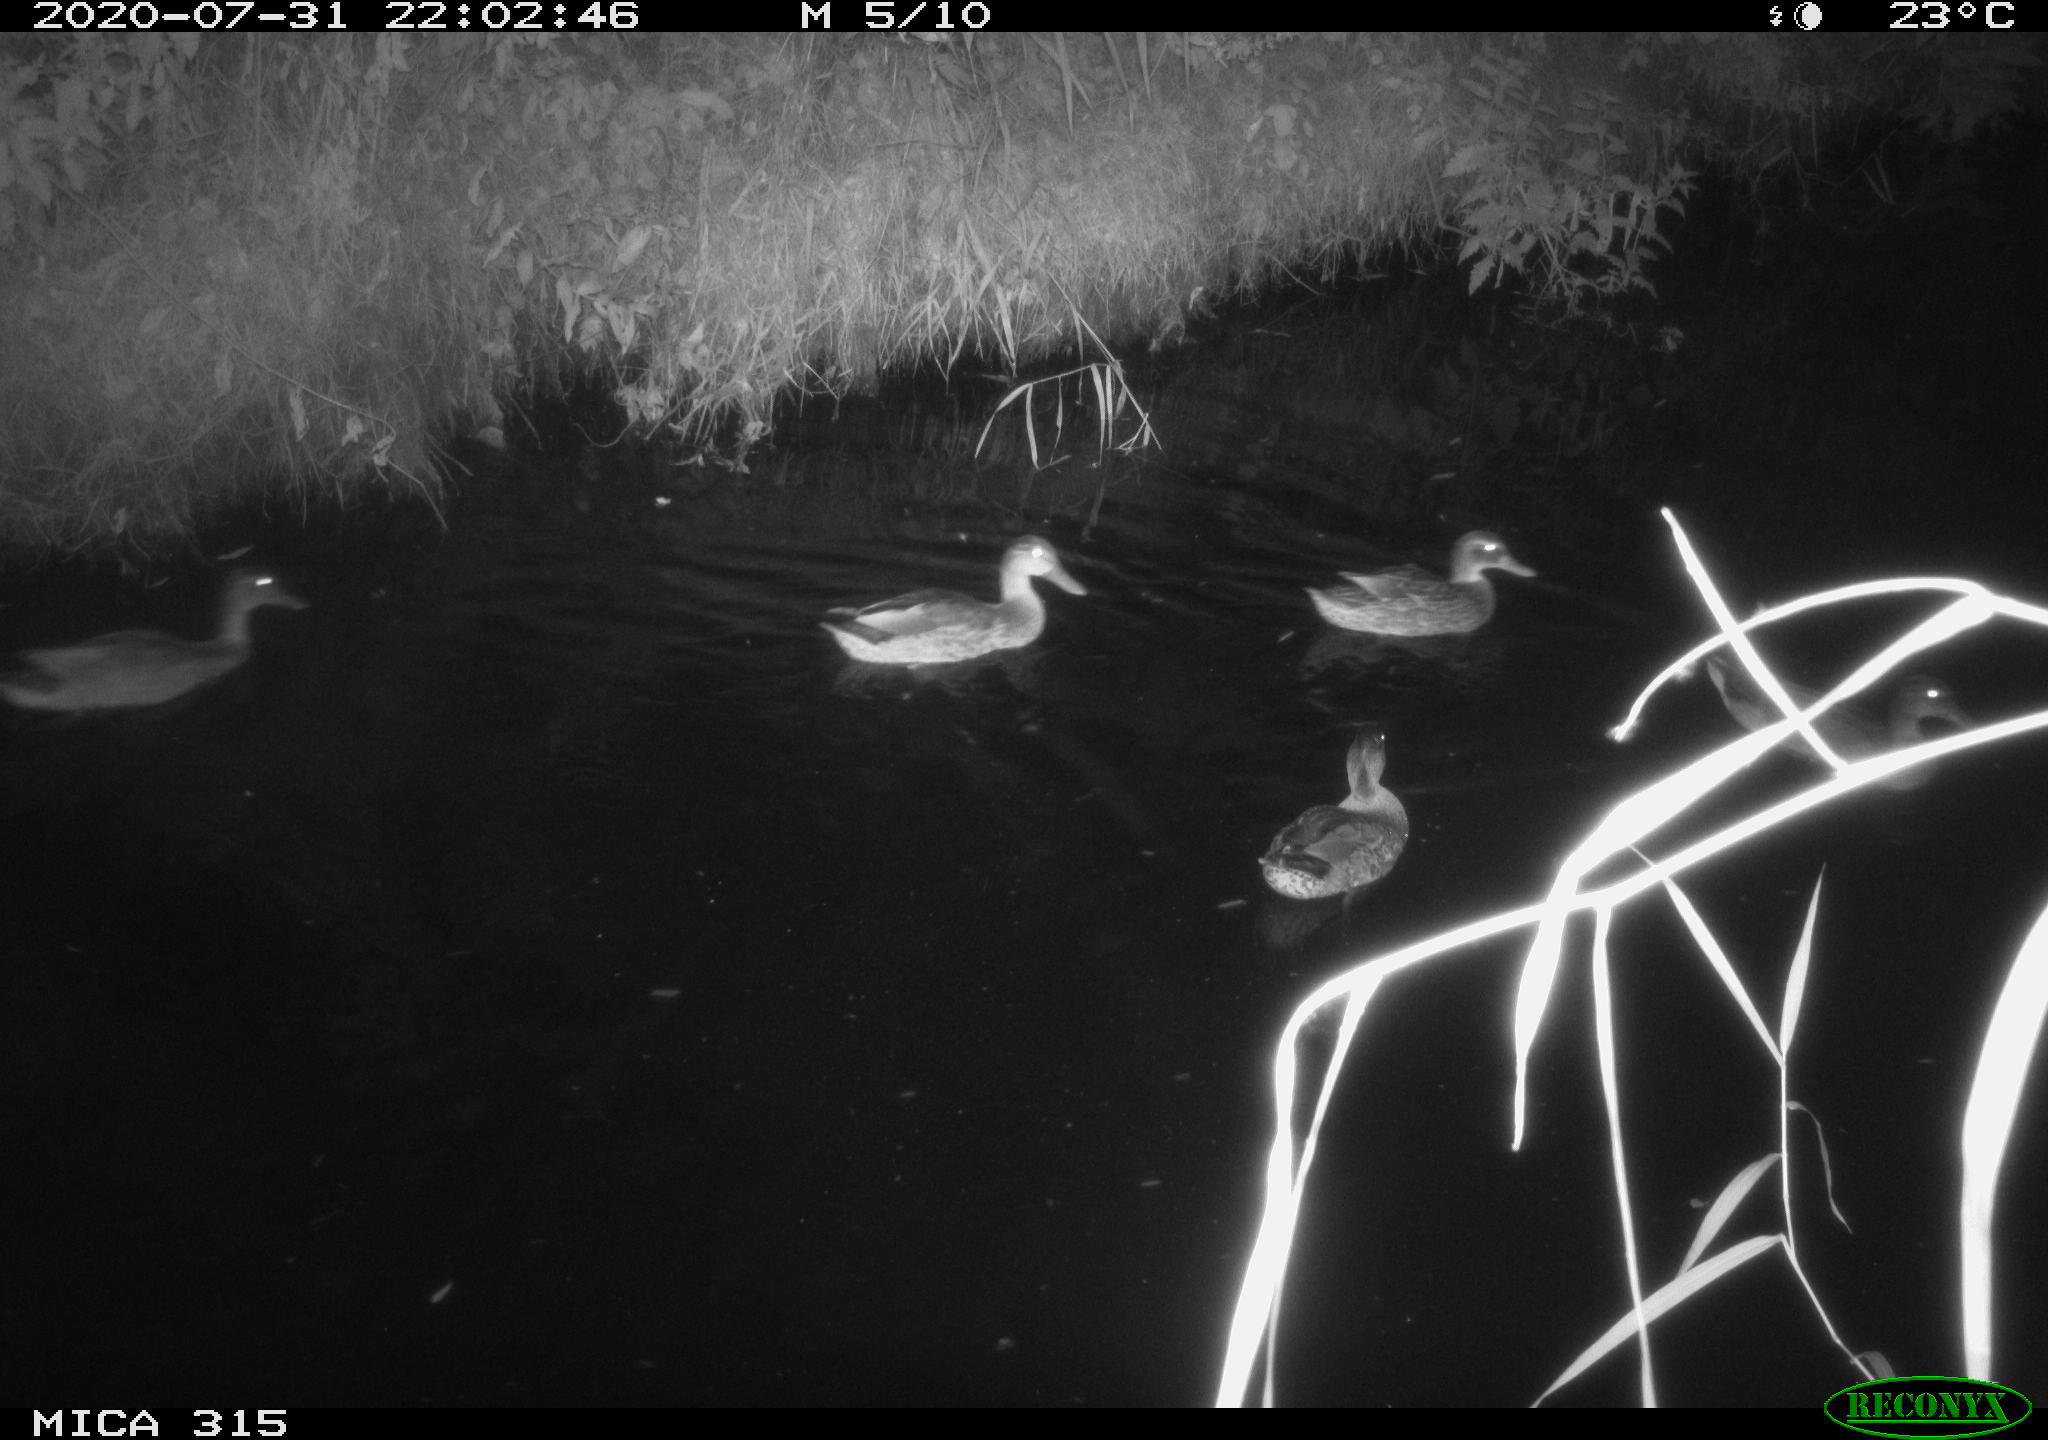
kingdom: Animalia
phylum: Chordata
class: Aves
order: Anseriformes
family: Anatidae
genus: Anas
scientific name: Anas platyrhynchos
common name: Mallard
